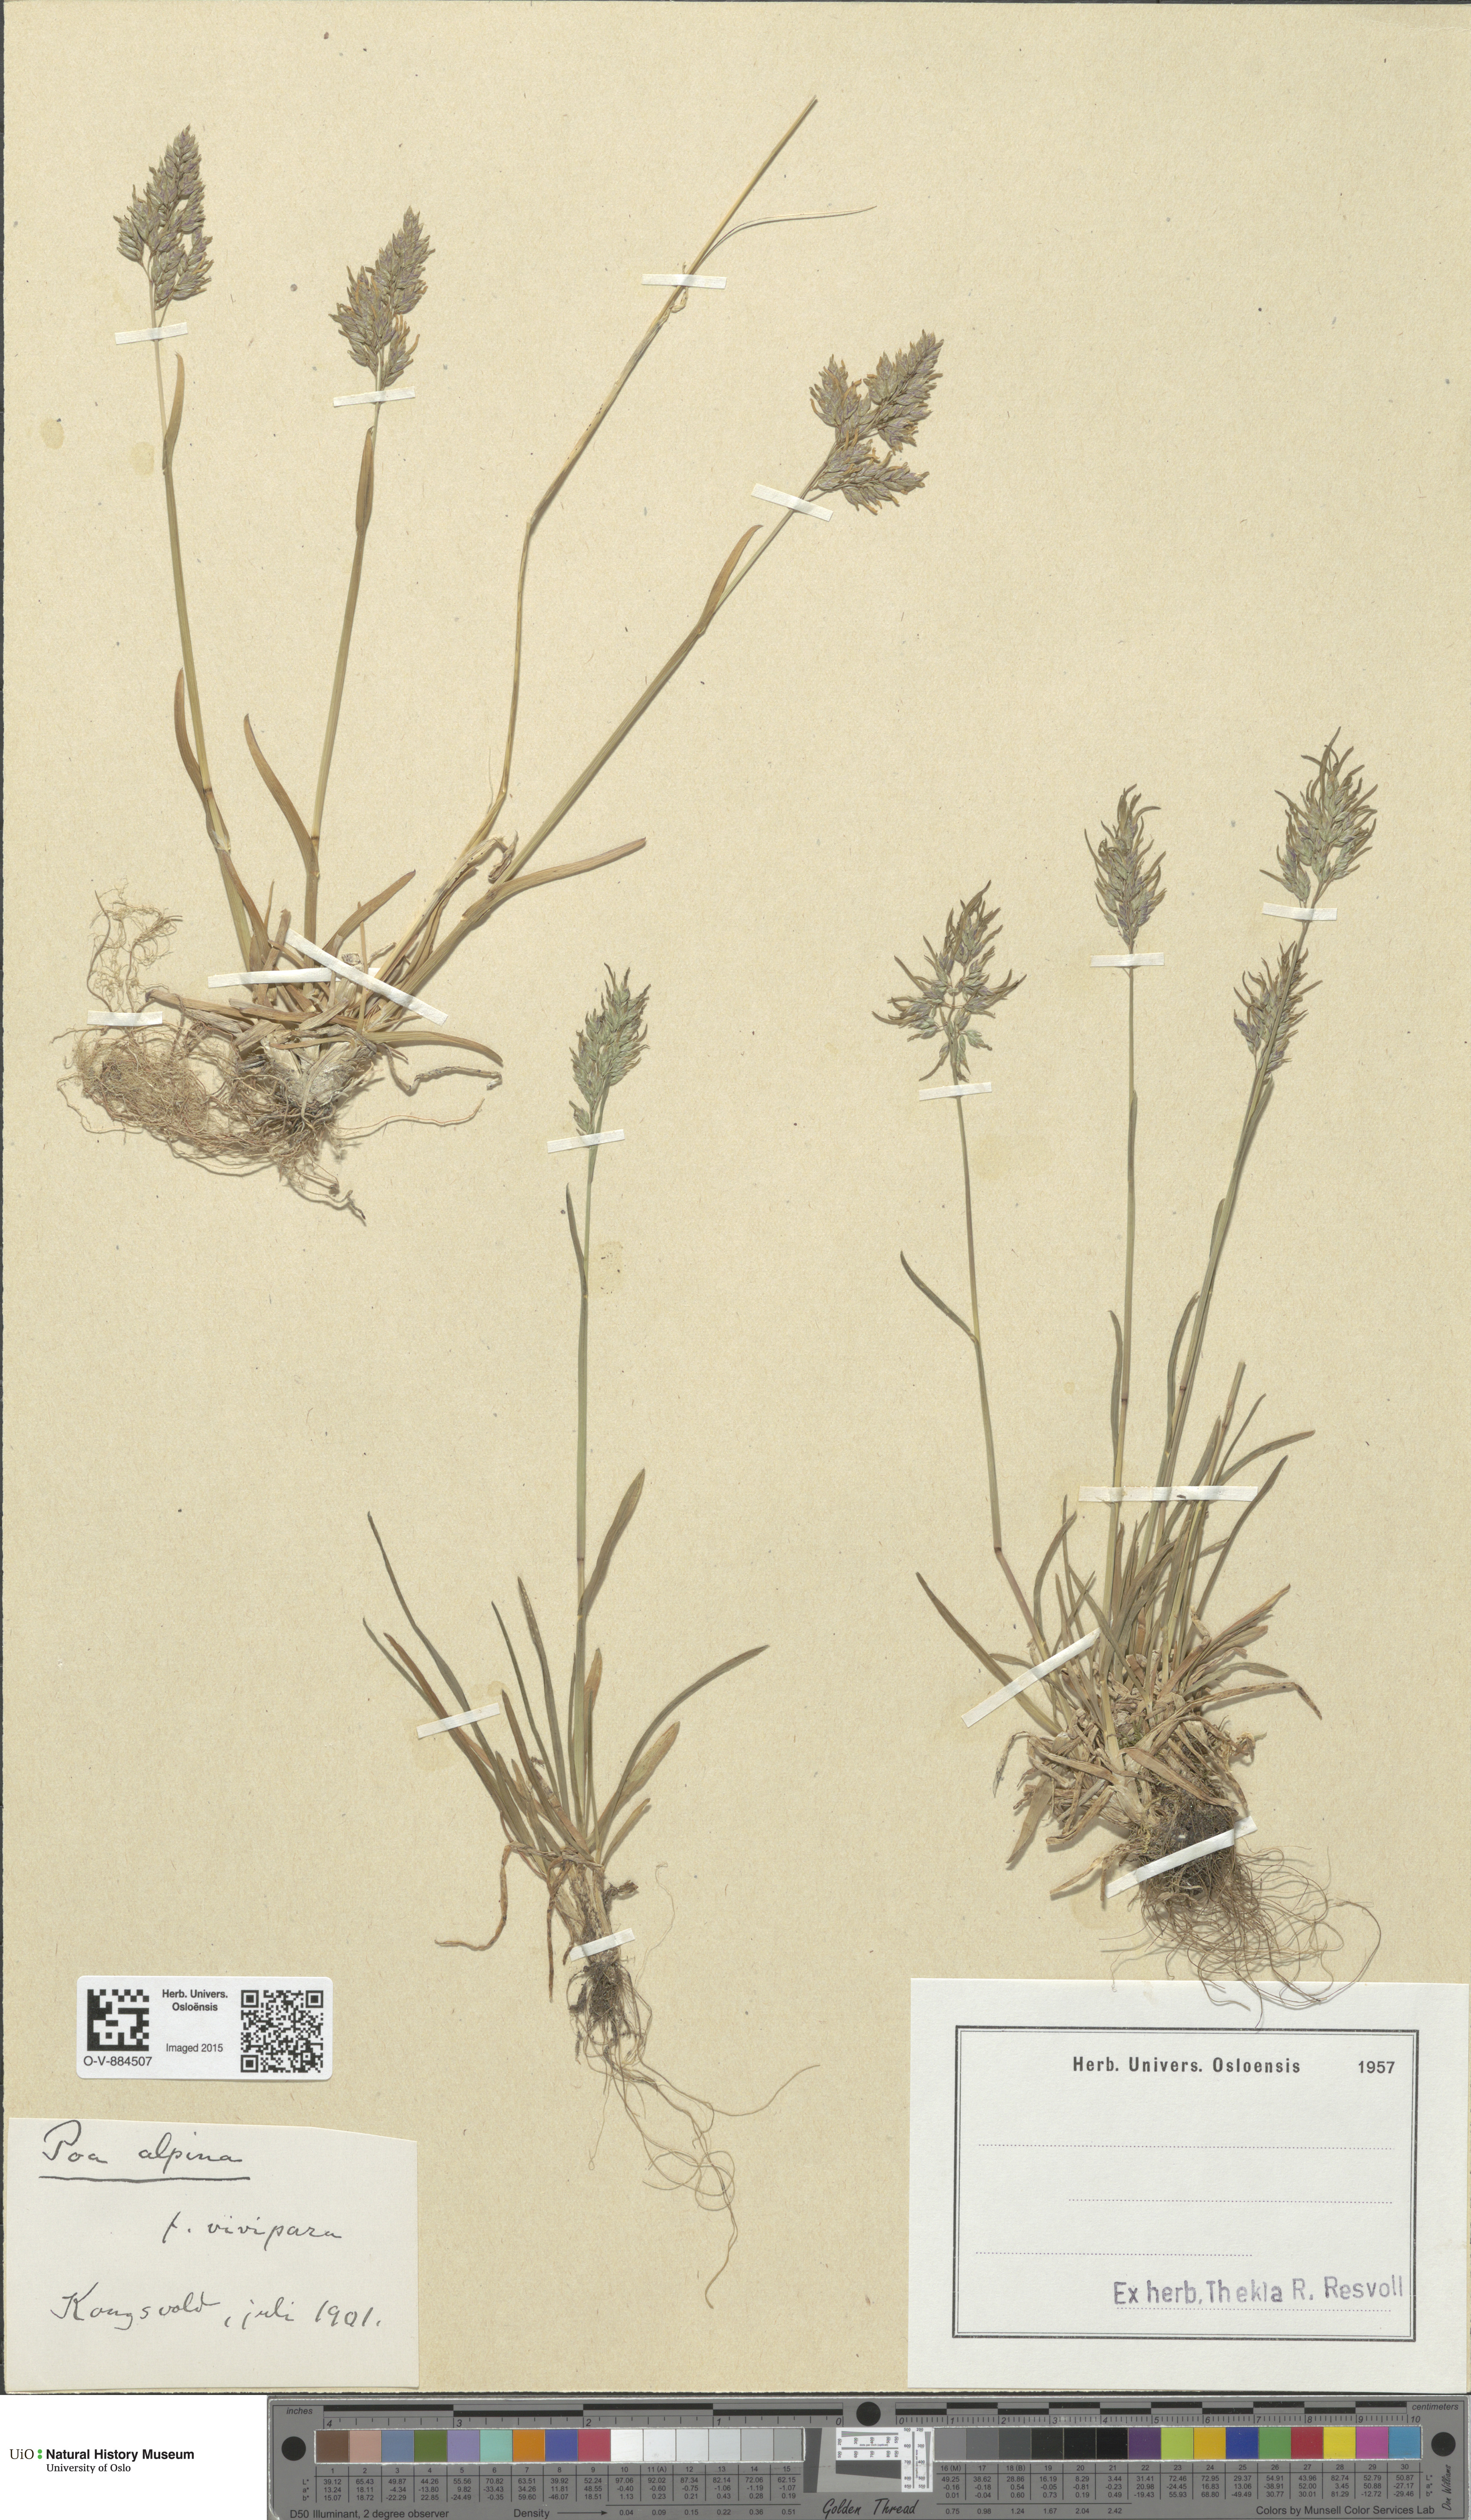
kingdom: Plantae
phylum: Tracheophyta
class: Liliopsida
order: Poales
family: Poaceae
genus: Poa
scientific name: Poa alpina
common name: Alpine bluegrass
